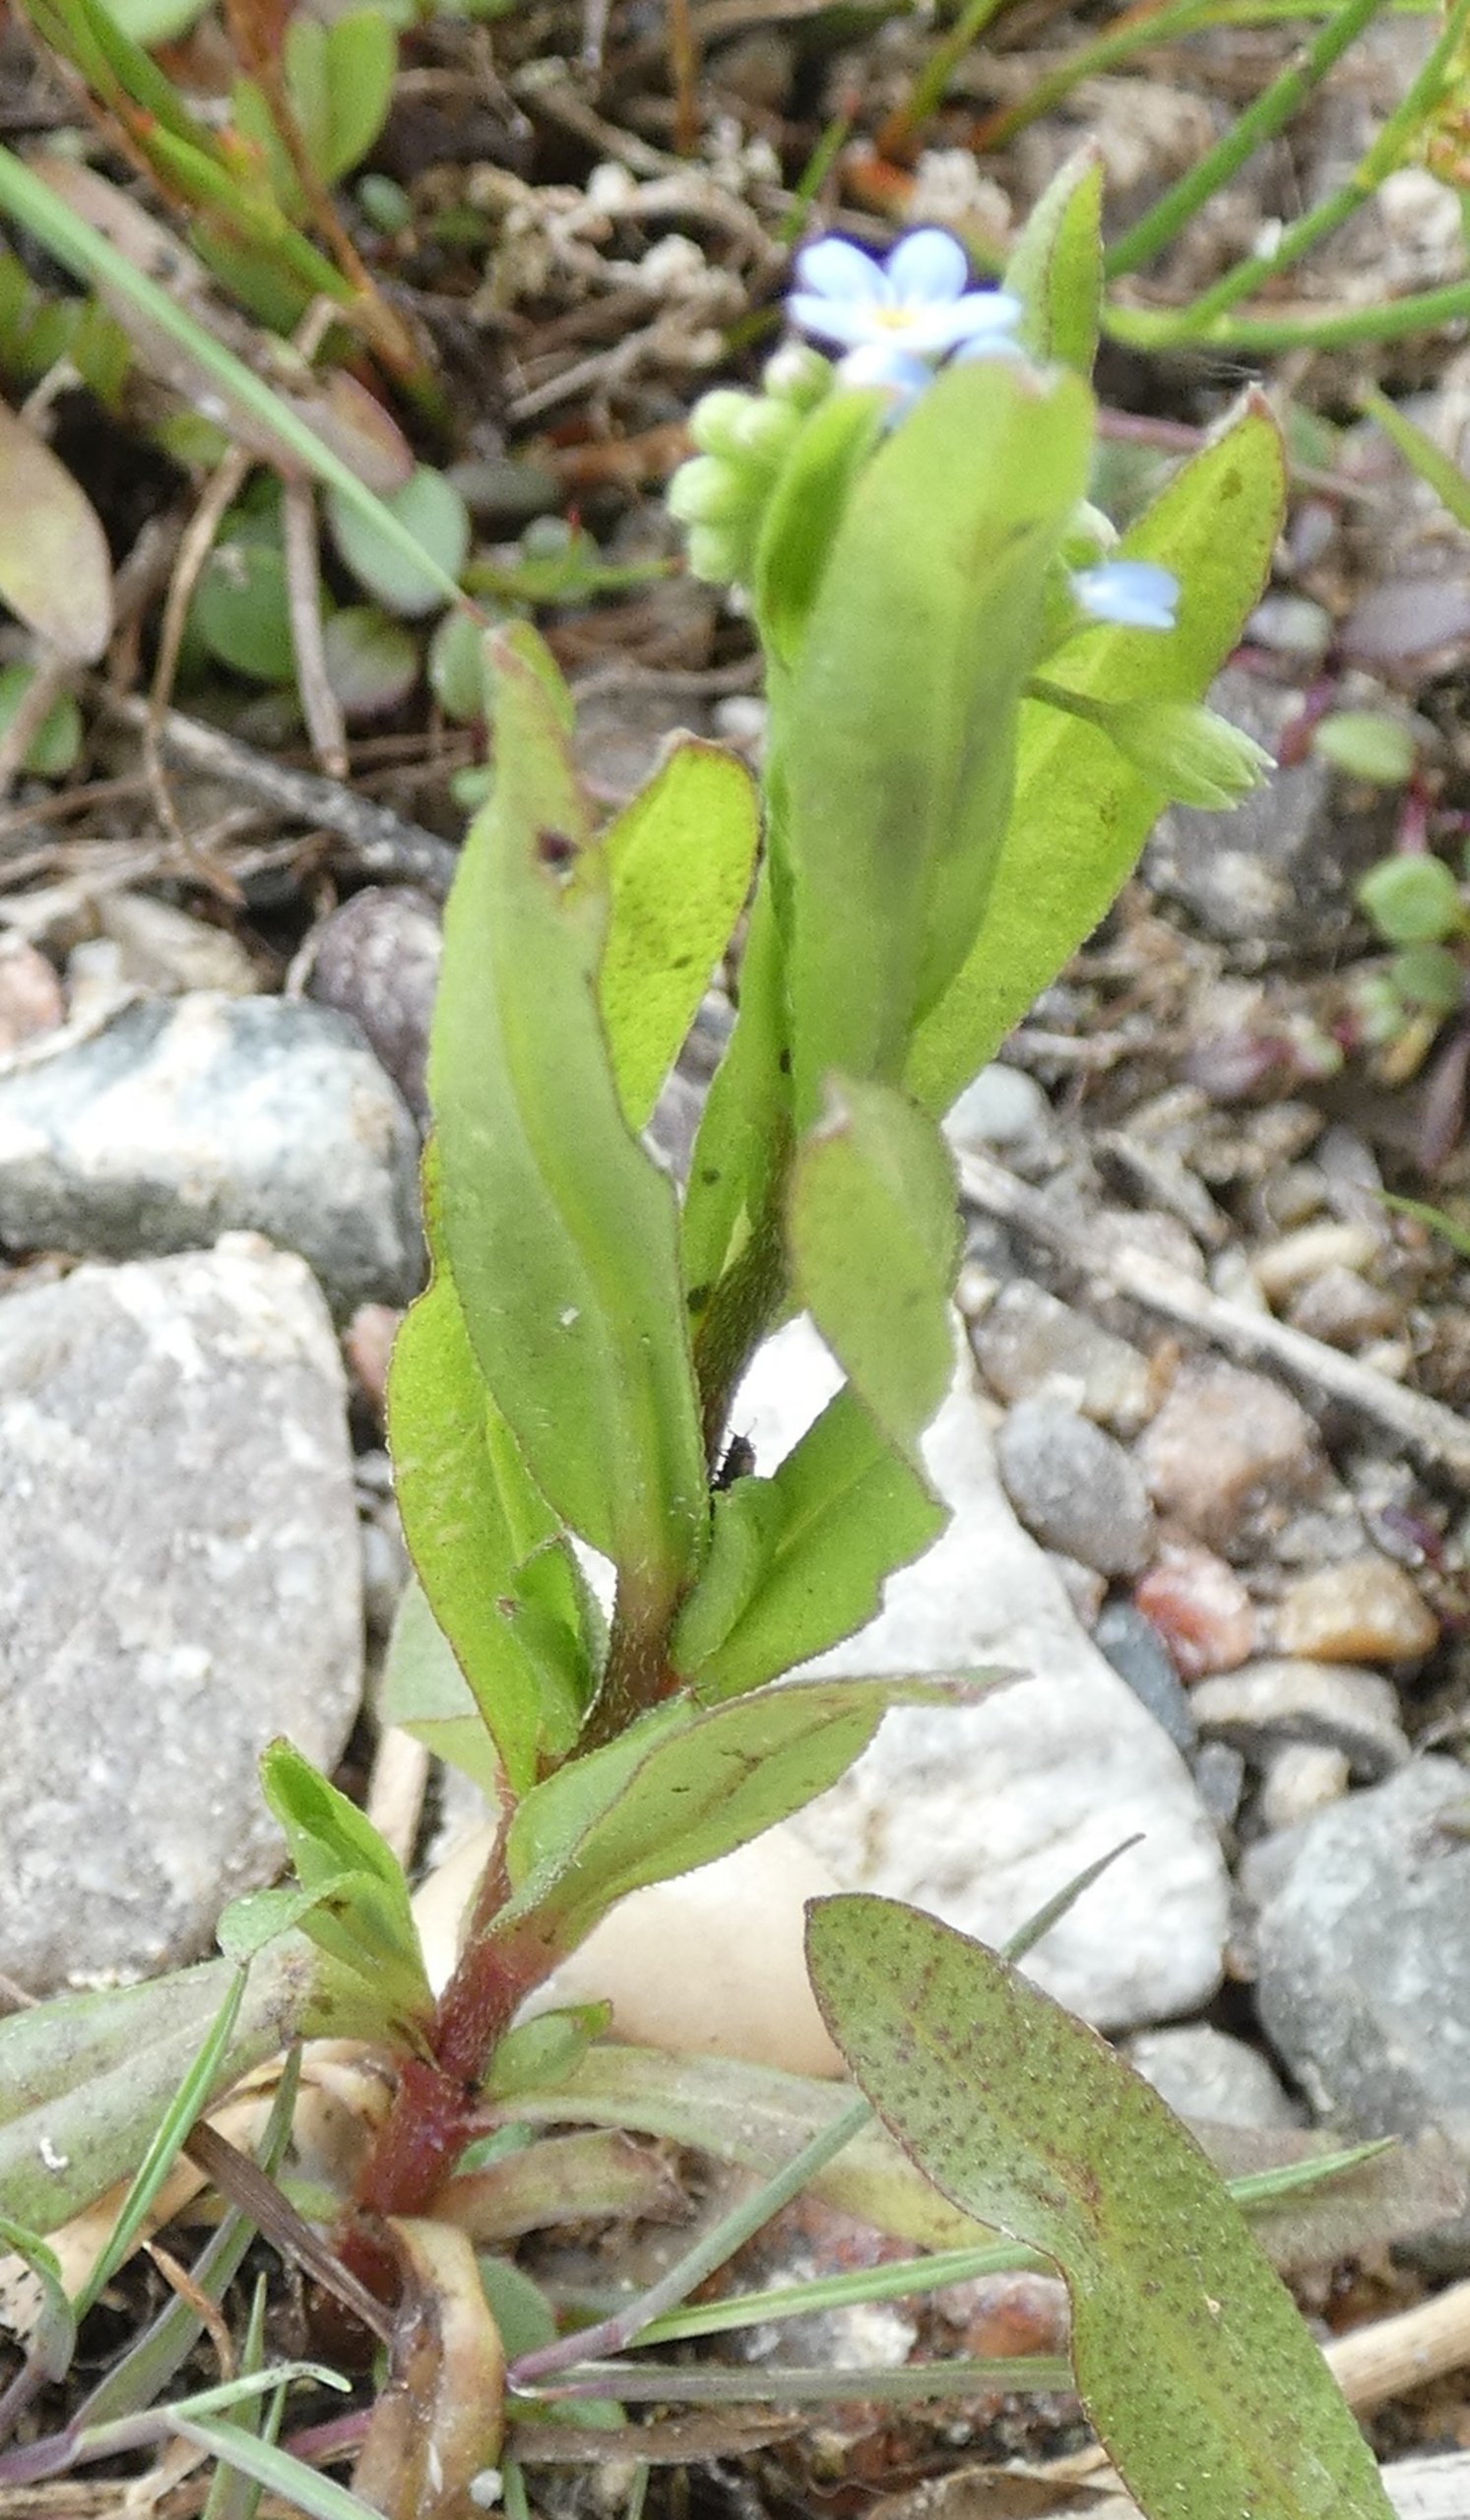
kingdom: Plantae
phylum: Tracheophyta
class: Magnoliopsida
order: Boraginales
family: Boraginaceae
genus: Myosotis
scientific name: Myosotis scorpioides
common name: Eng-forglemmigej
